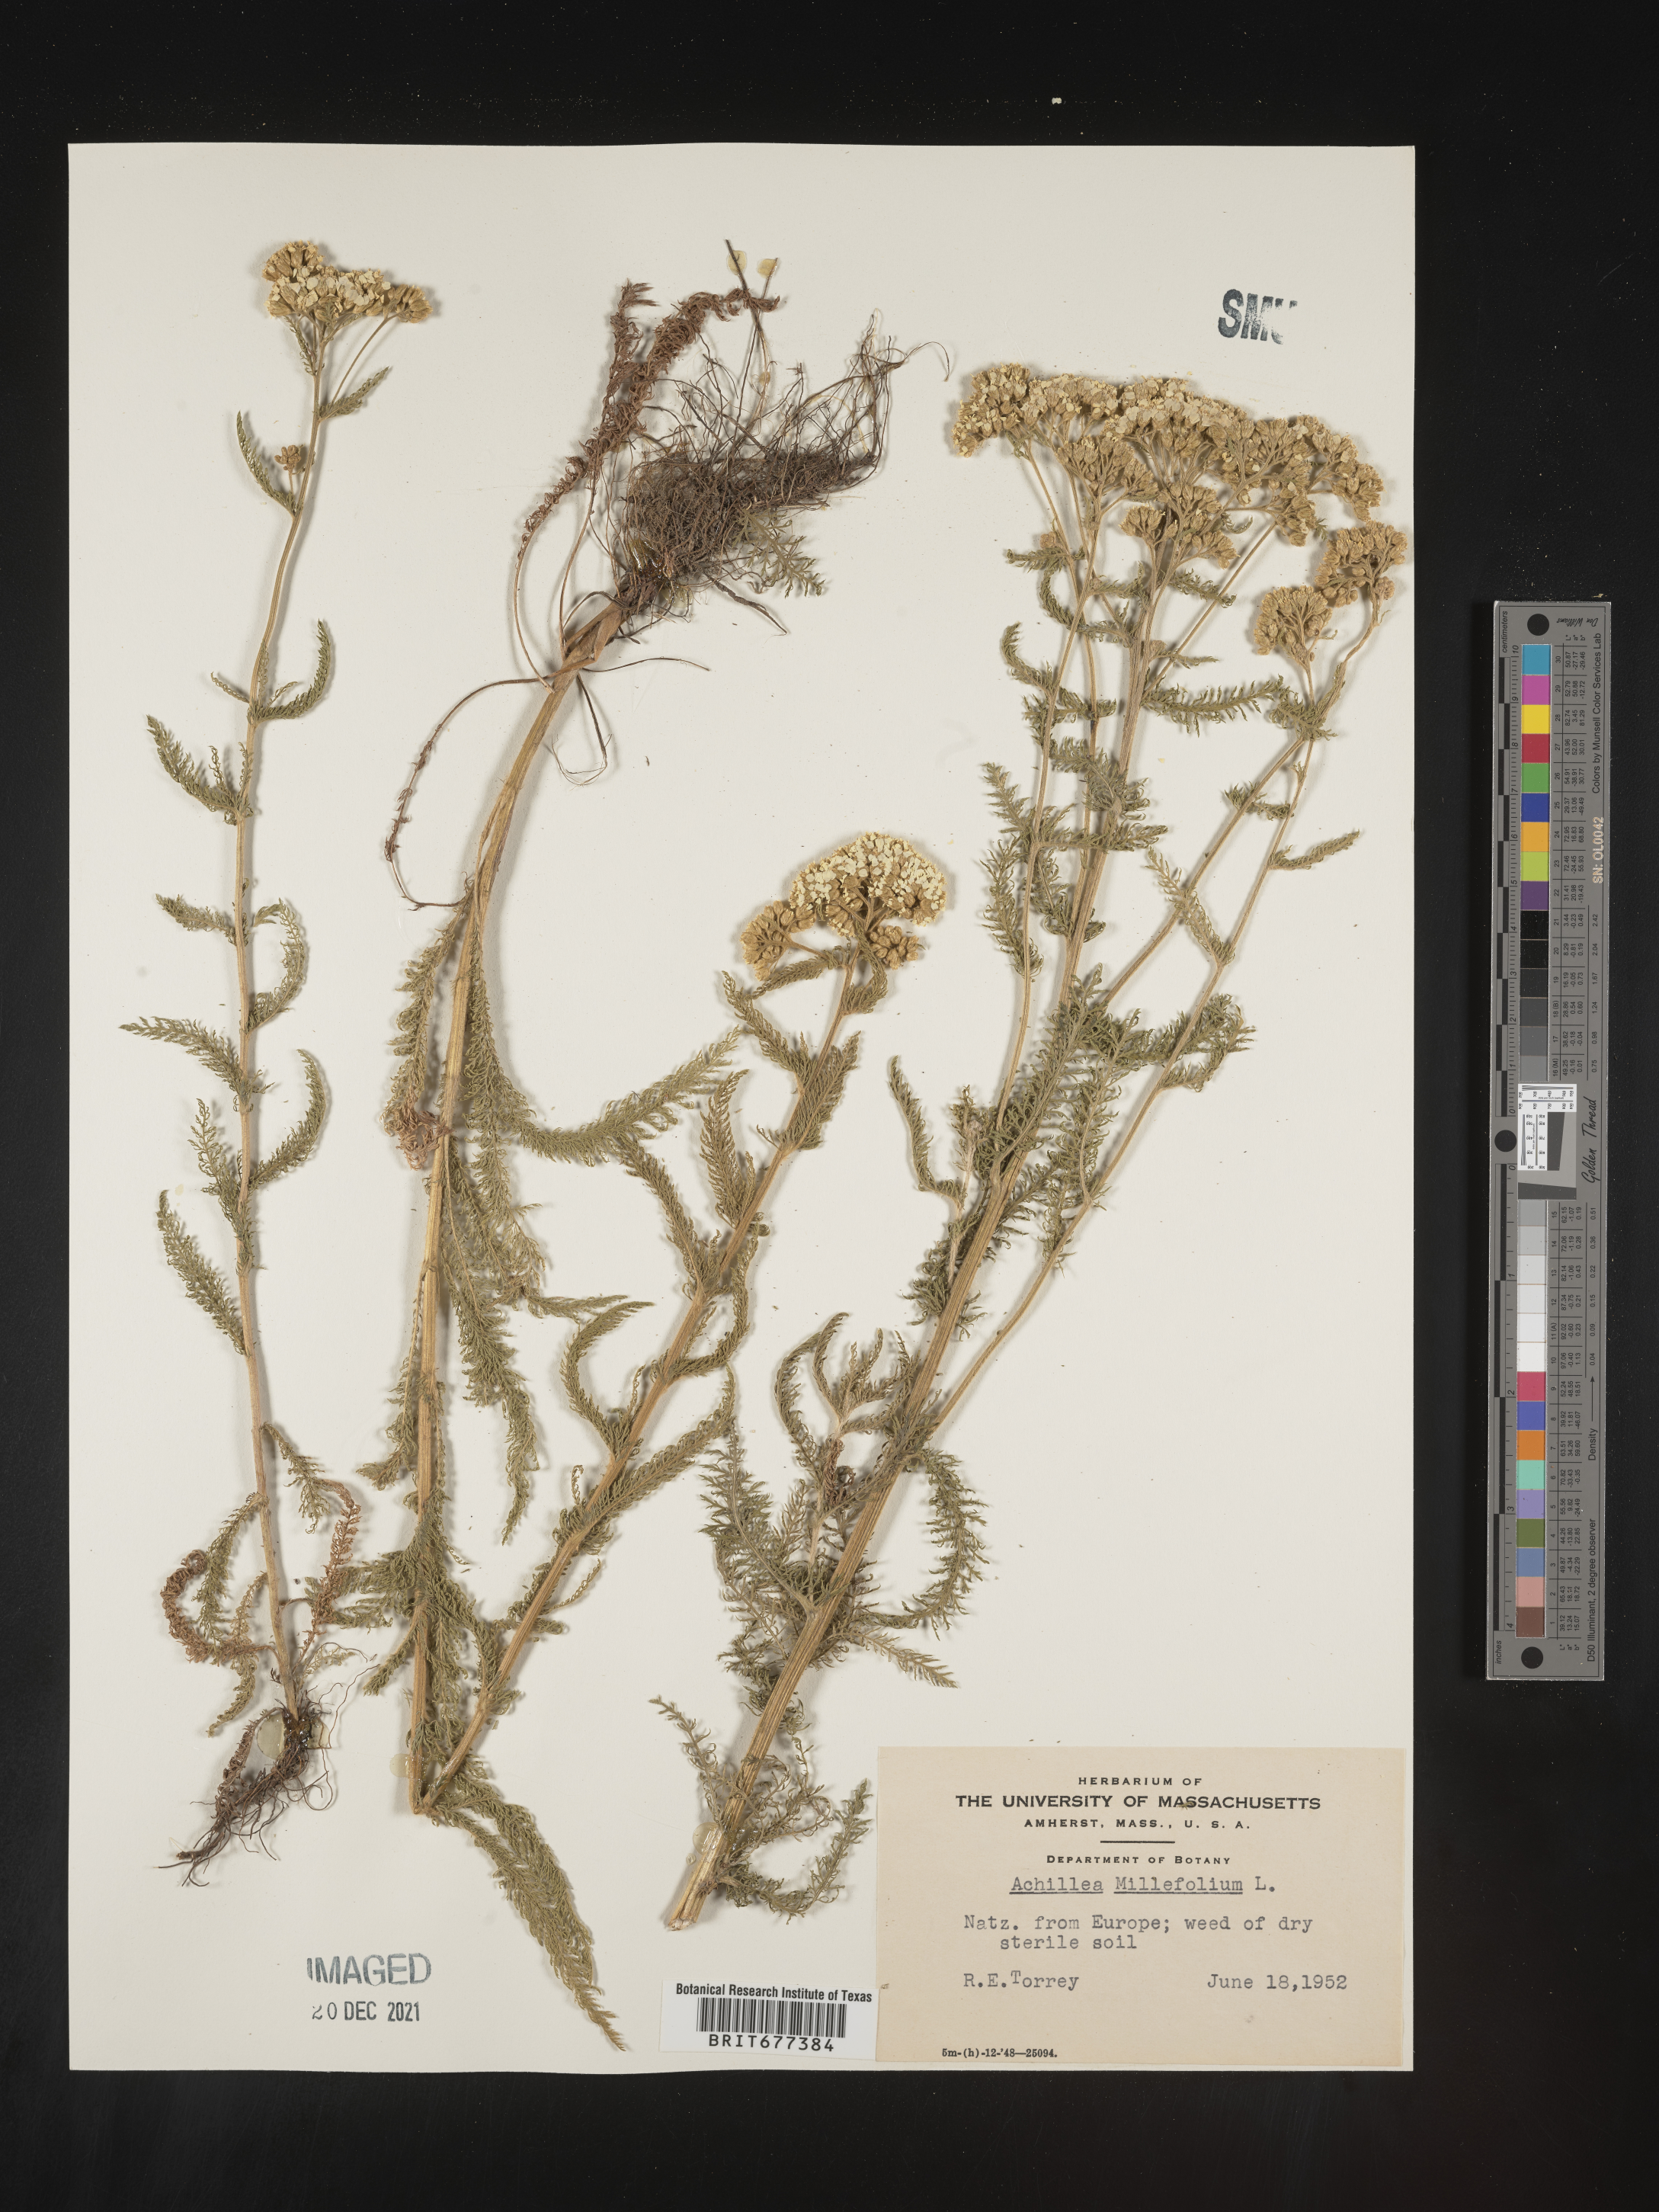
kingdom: Plantae
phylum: Tracheophyta
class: Magnoliopsida
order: Asterales
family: Asteraceae
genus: Achillea
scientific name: Achillea millefolium
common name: Yarrow
